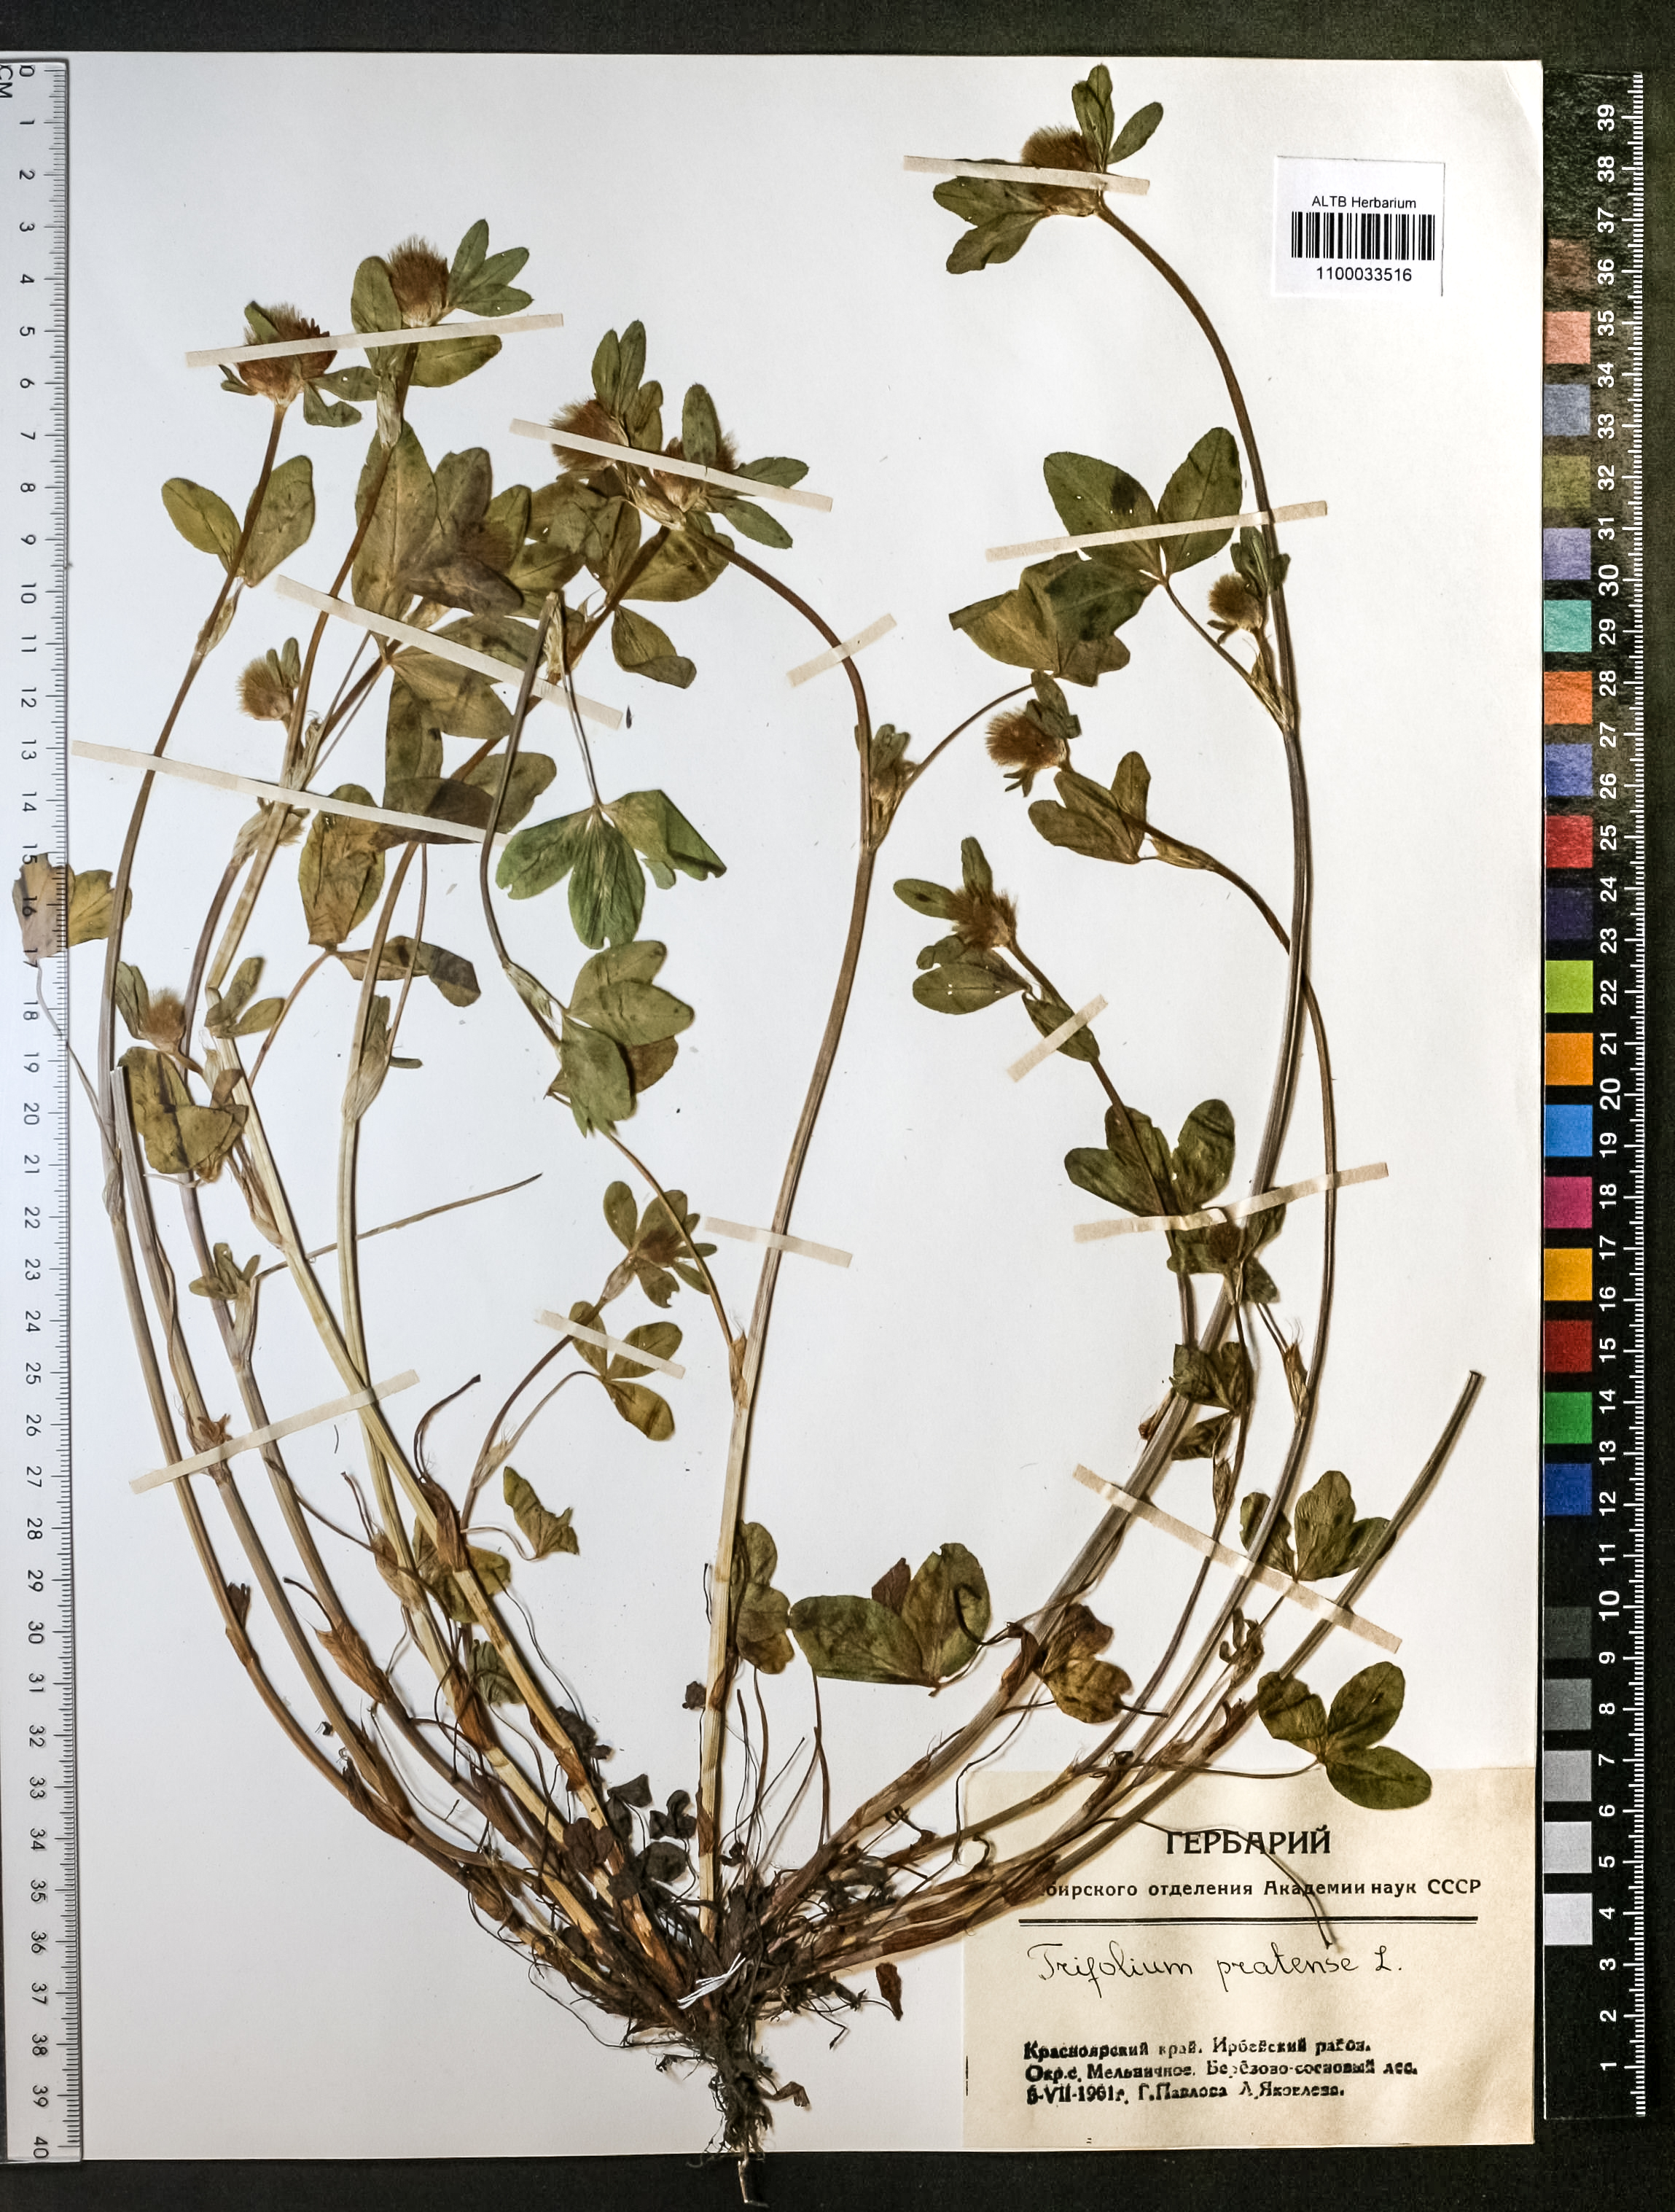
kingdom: Plantae
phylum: Tracheophyta
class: Magnoliopsida
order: Fabales
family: Fabaceae
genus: Trifolium
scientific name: Trifolium pratense
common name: Red clover
